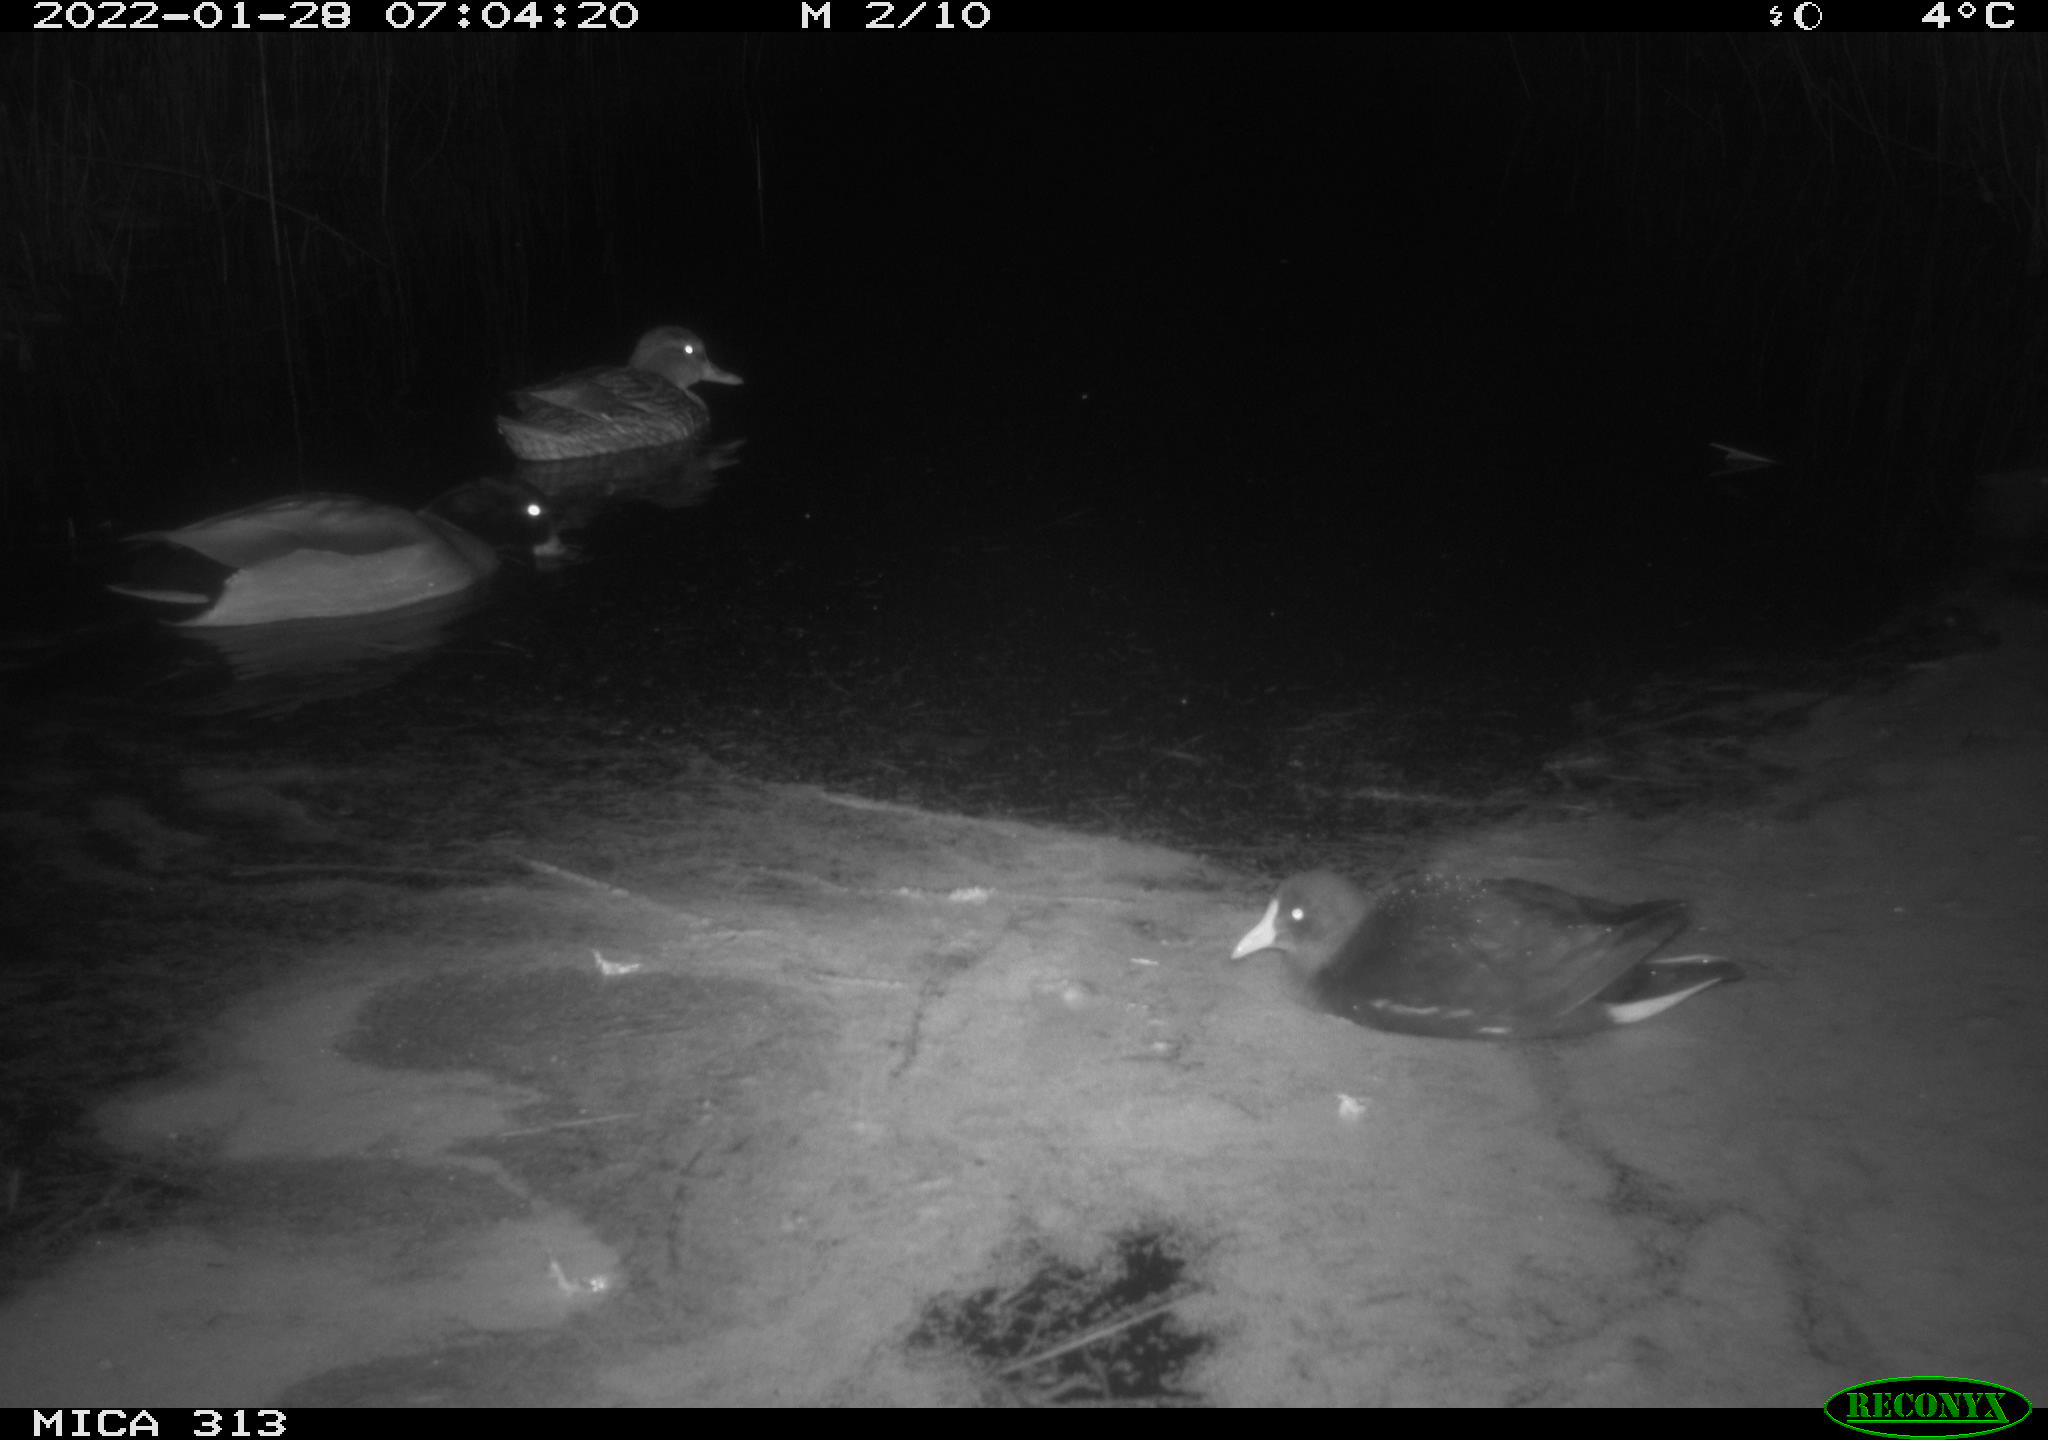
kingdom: Animalia
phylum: Chordata
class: Aves
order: Gruiformes
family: Rallidae
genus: Fulica
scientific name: Fulica atra
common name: Eurasian coot
